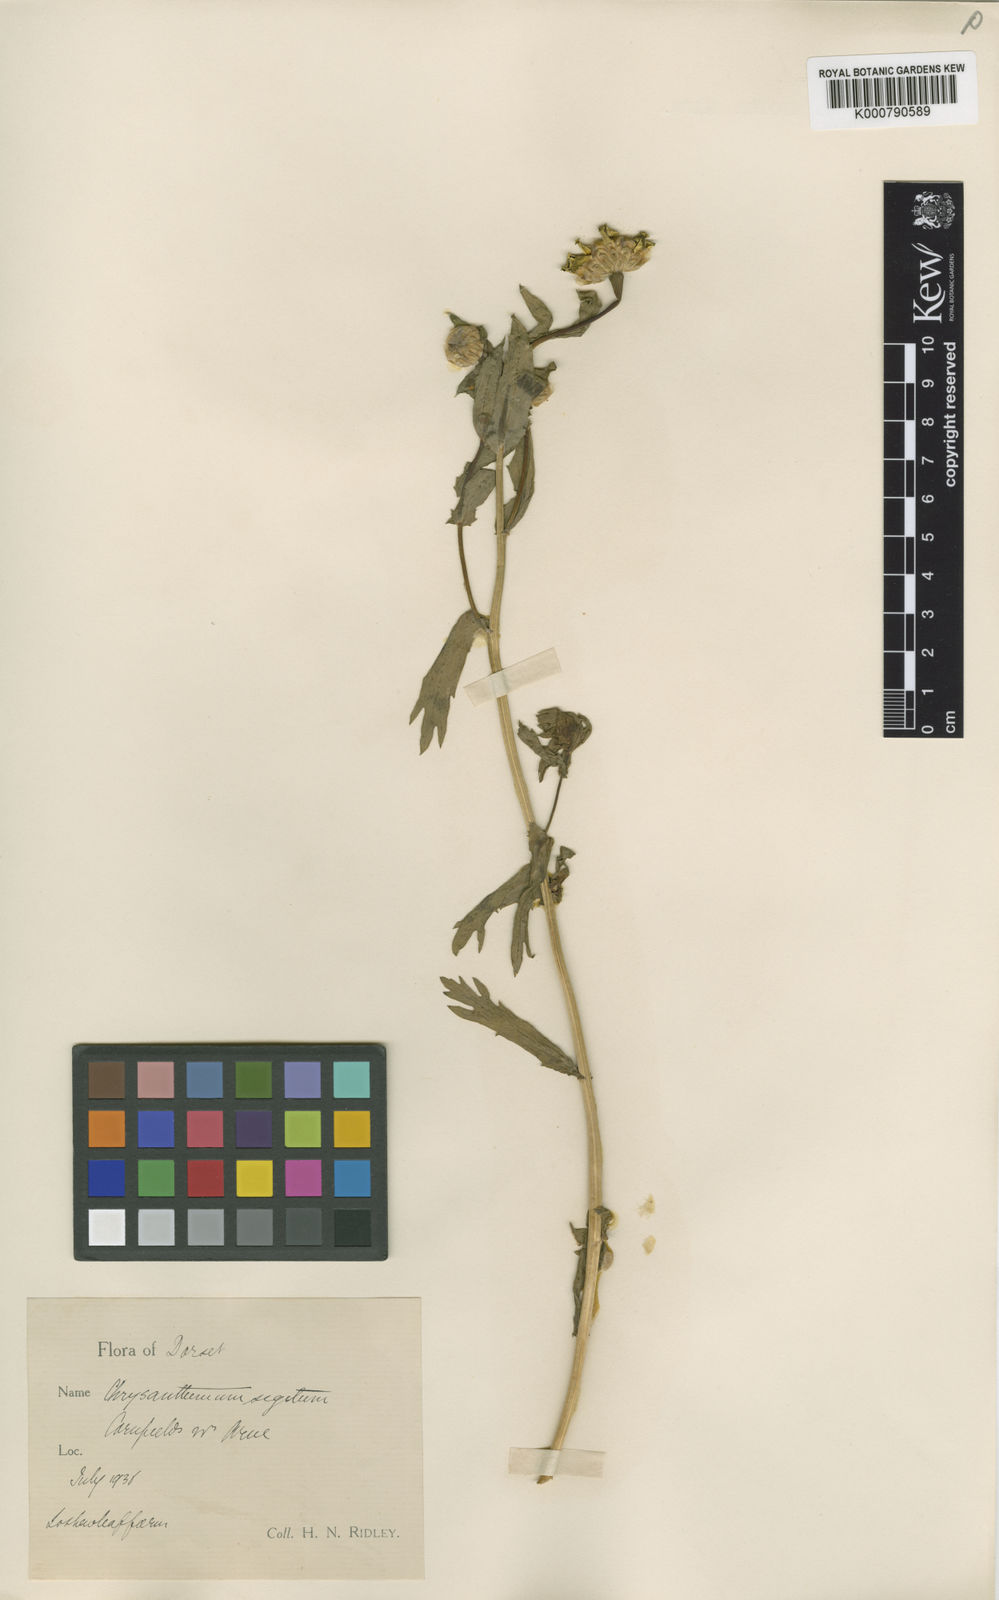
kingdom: Plantae
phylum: Tracheophyta
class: Magnoliopsida
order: Asterales
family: Asteraceae
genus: Glebionis
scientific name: Glebionis
